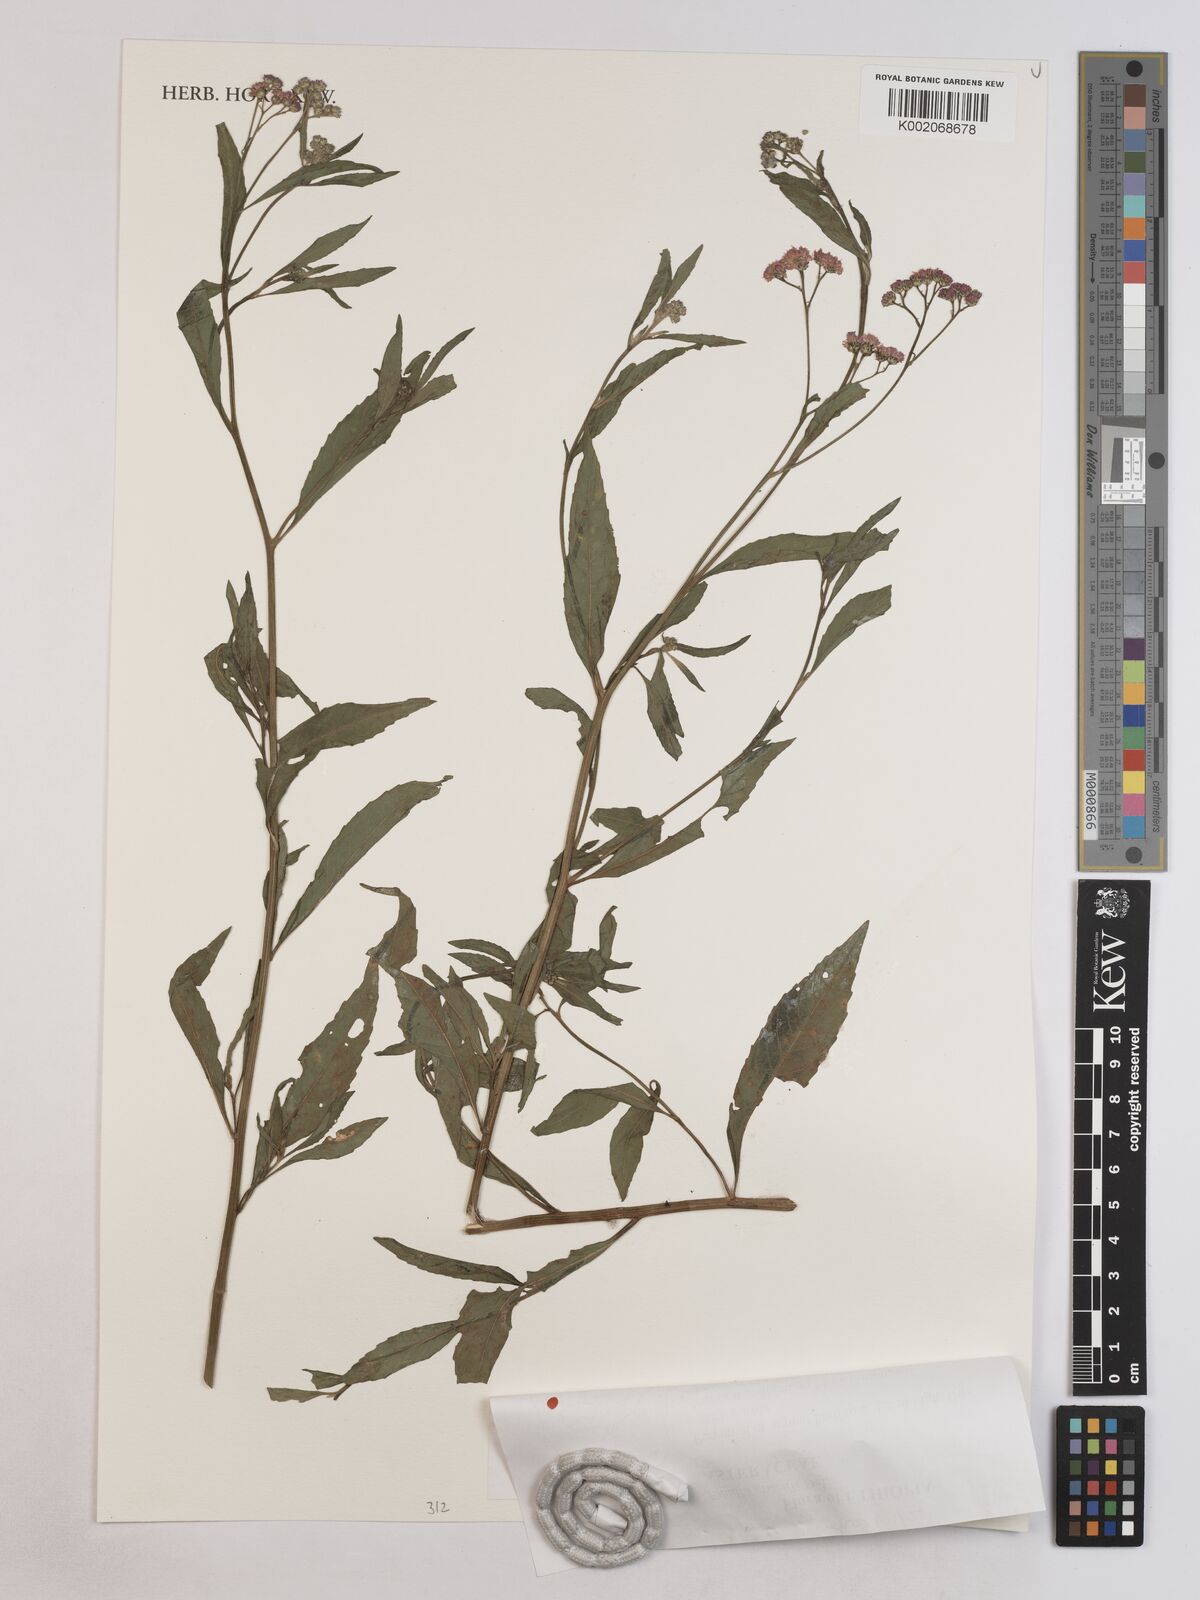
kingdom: Plantae
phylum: Tracheophyta
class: Magnoliopsida
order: Asterales
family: Asteraceae
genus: Ethulia
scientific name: Ethulia gracilis
